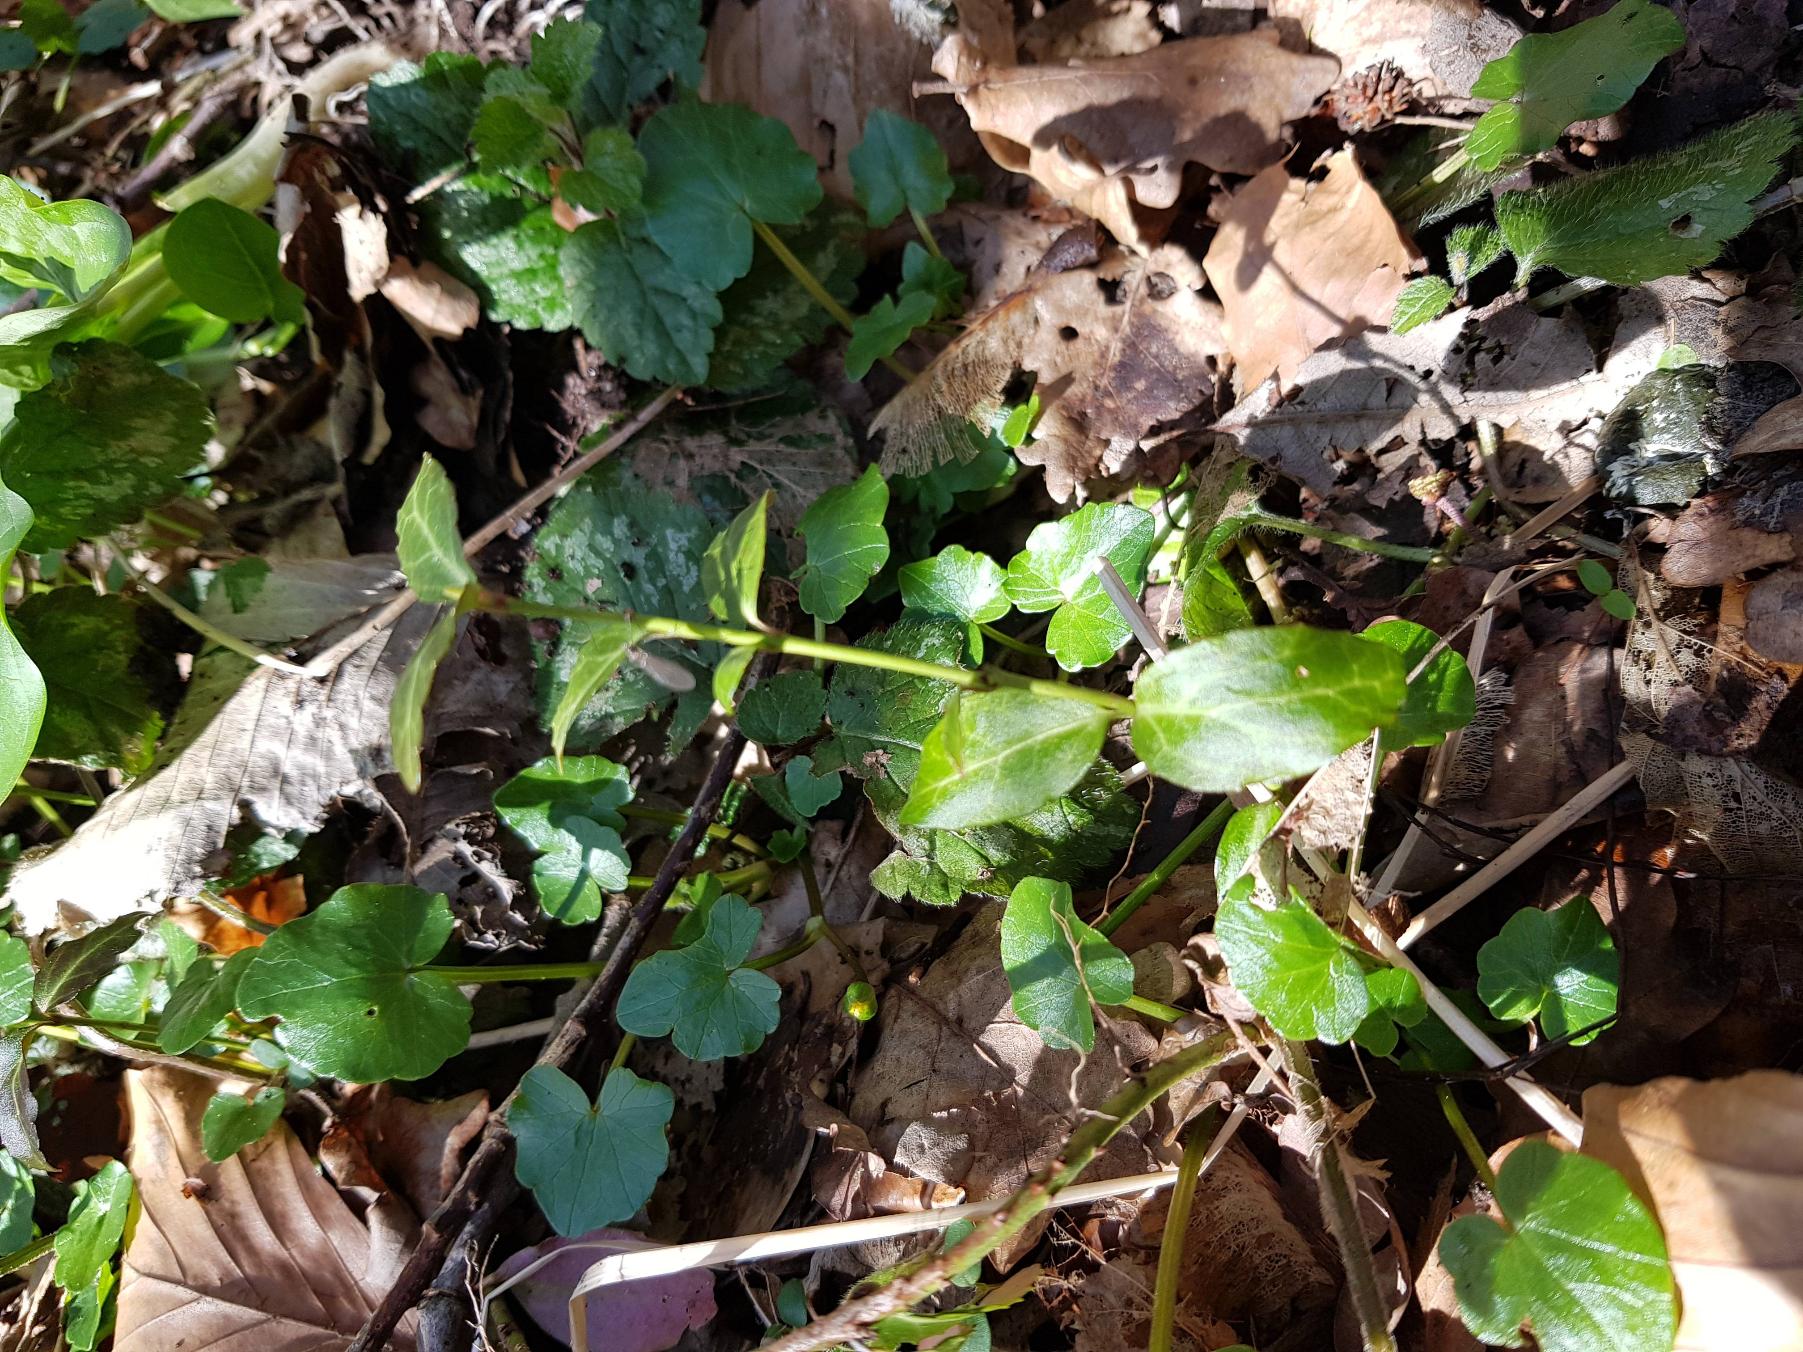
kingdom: Plantae
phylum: Tracheophyta
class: Magnoliopsida
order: Celastrales
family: Celastraceae
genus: Euonymus
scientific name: Euonymus fortunei
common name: Krybende benved
